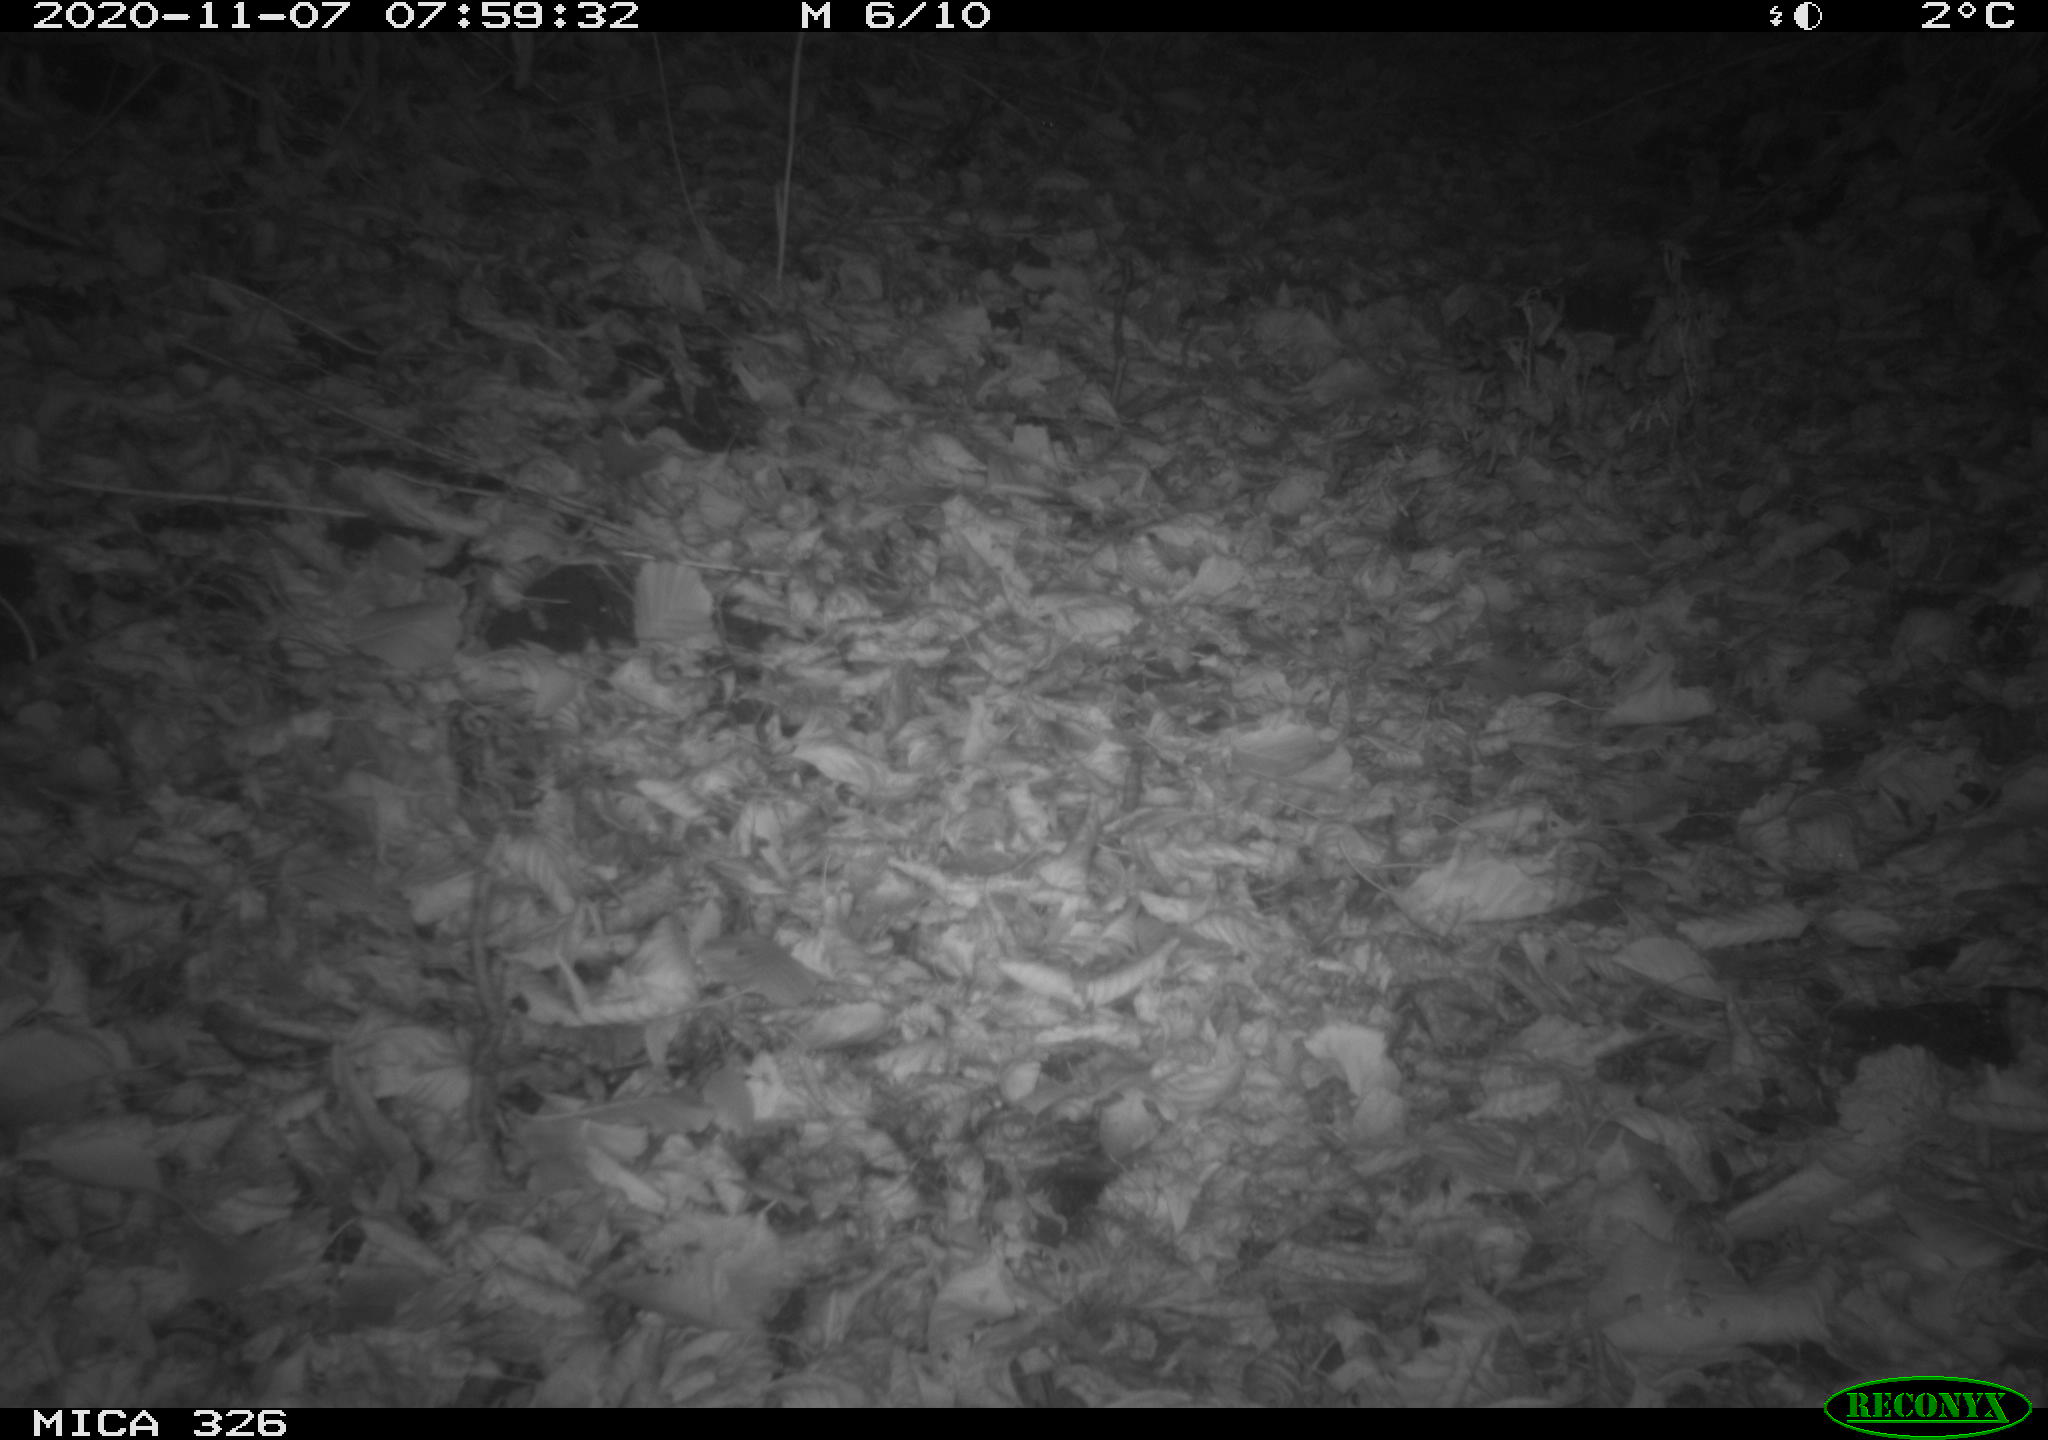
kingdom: Animalia
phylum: Chordata
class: Mammalia
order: Carnivora
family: Mustelidae
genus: Mustela
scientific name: Mustela putorius
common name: European polecat
